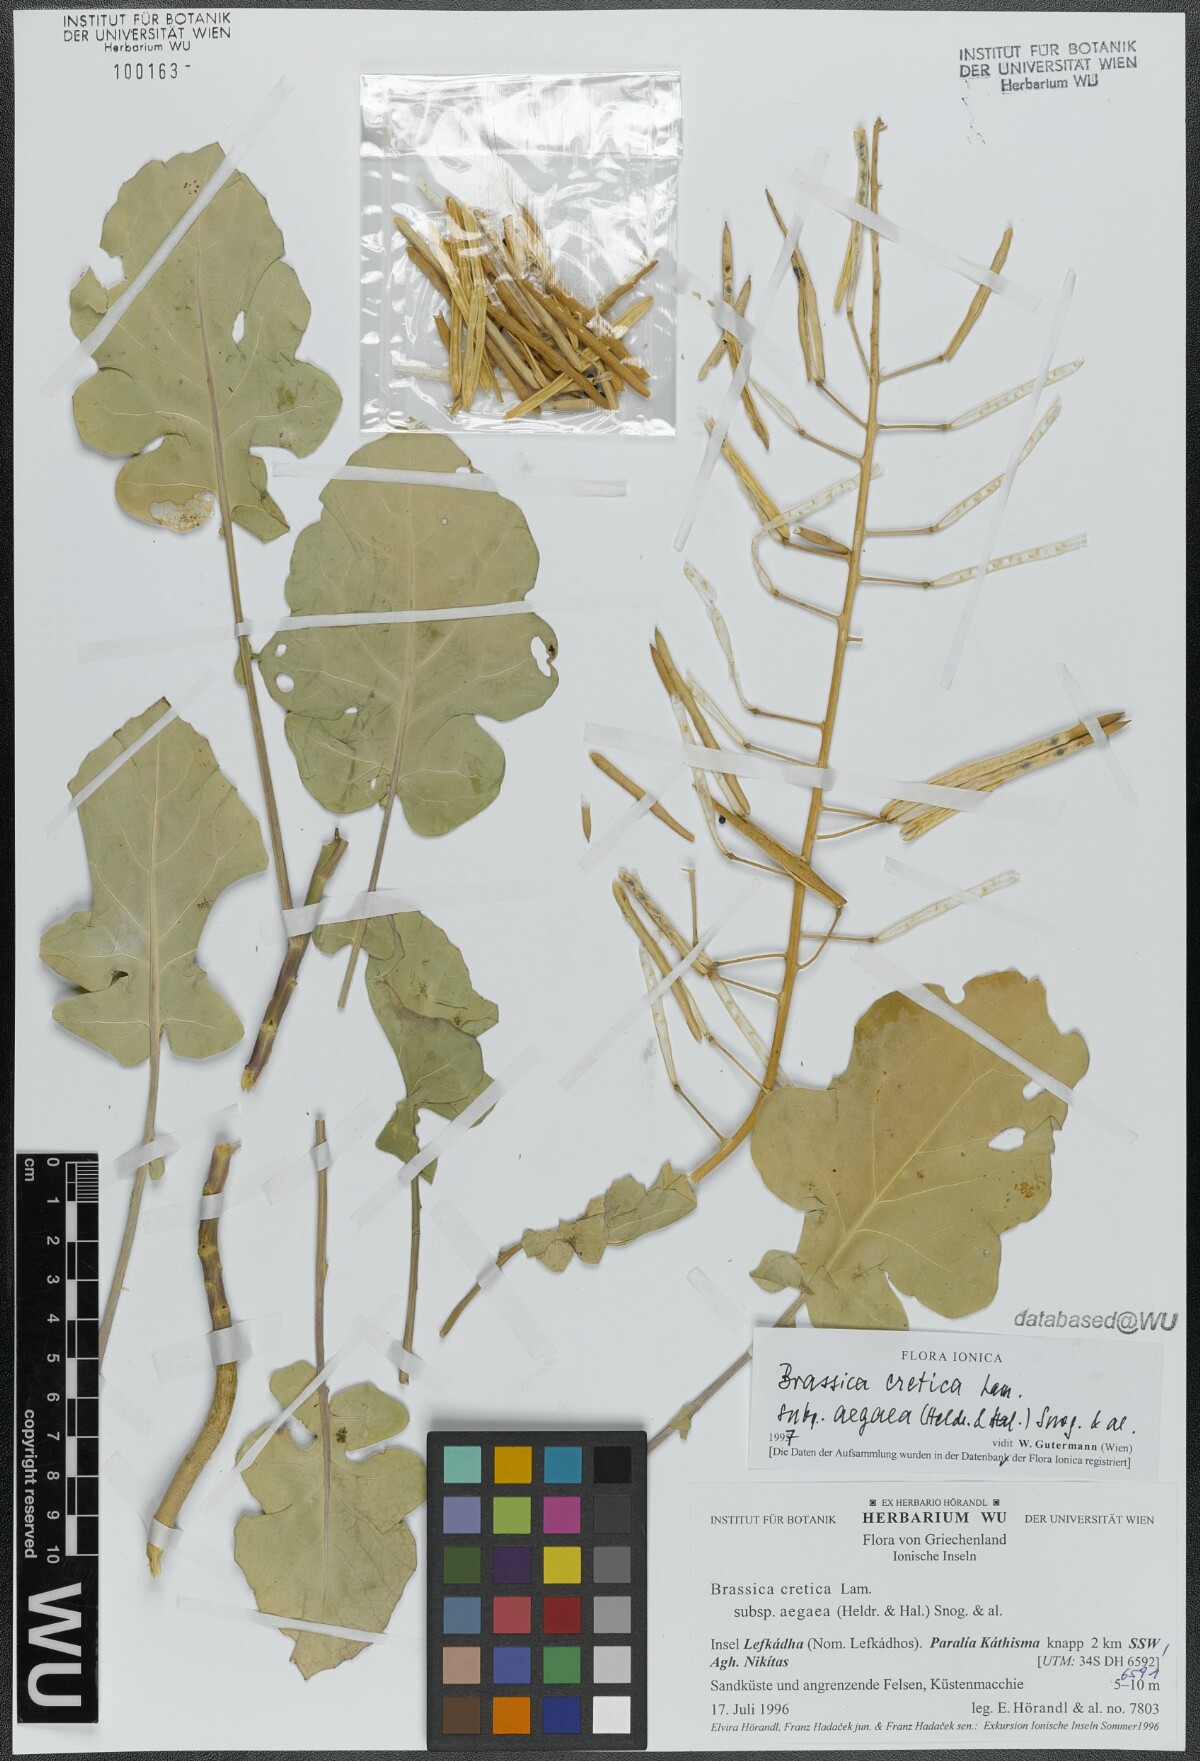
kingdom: Plantae
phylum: Tracheophyta
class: Magnoliopsida
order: Brassicales
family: Brassicaceae
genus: Brassica
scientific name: Brassica cretica
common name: Mustard
